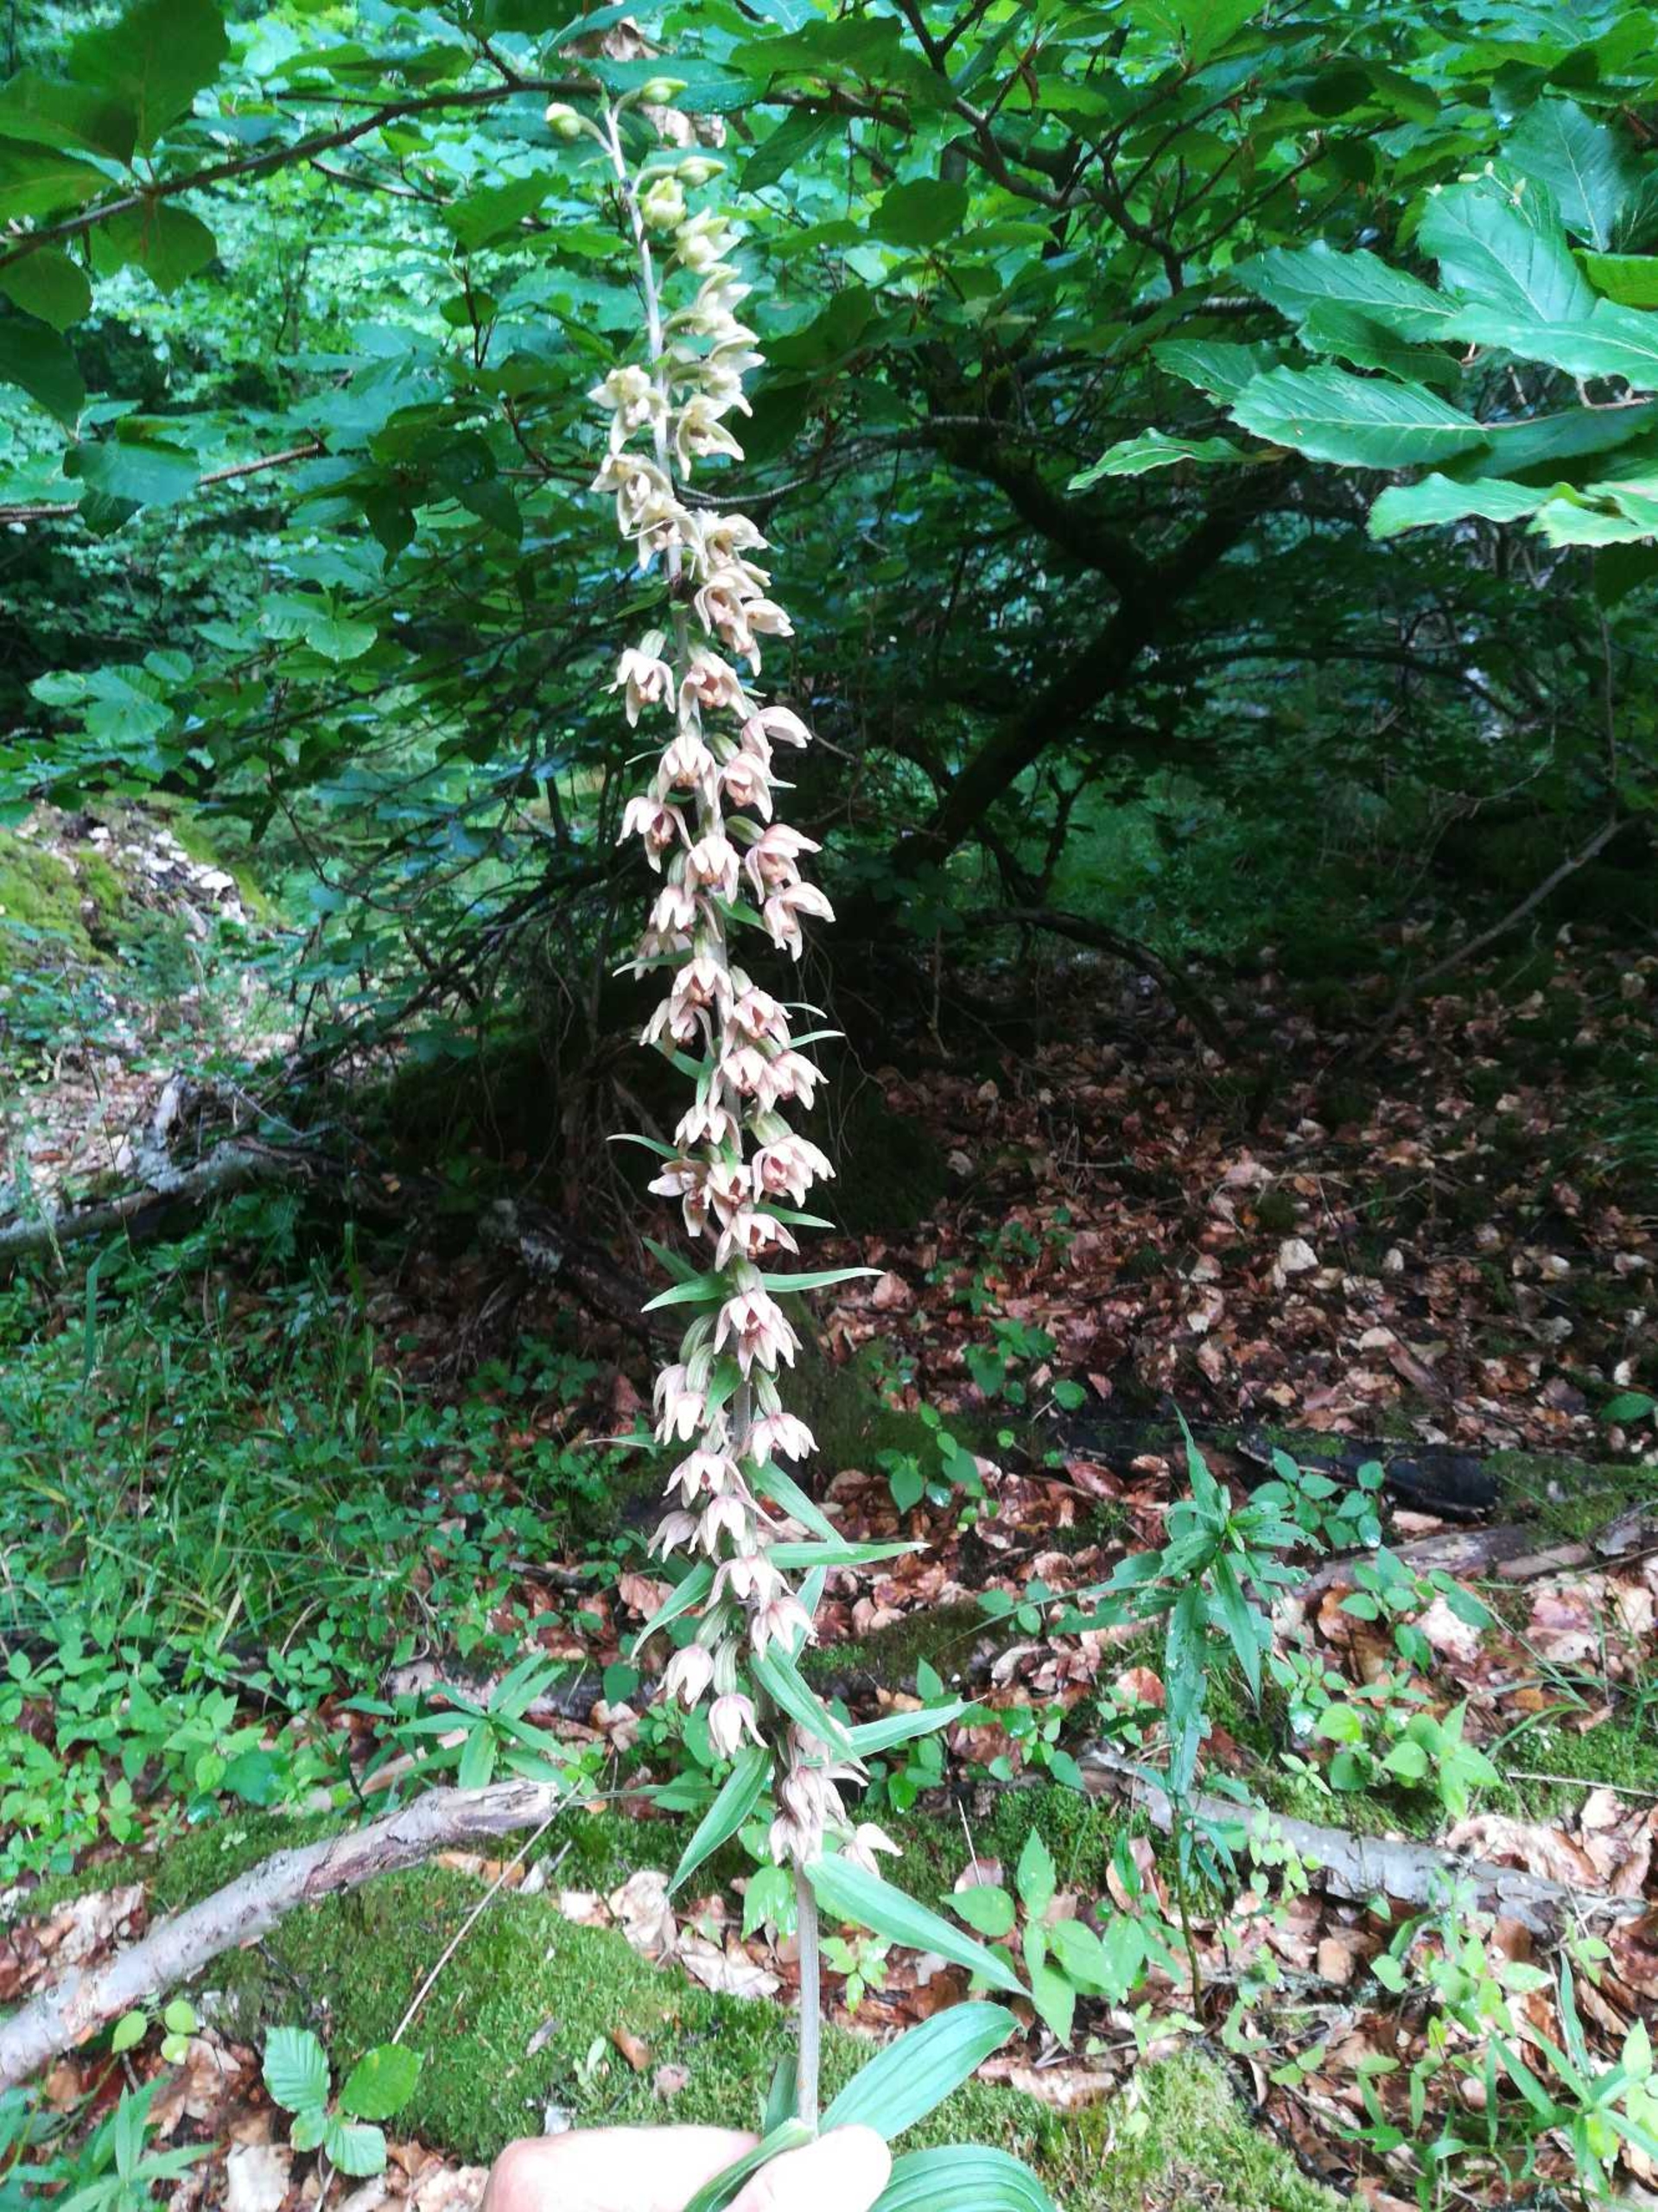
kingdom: Plantae
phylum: Tracheophyta
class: Liliopsida
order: Asparagales
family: Orchidaceae
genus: Epipactis
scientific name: Epipactis helleborine
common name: Skov-hullæbe
